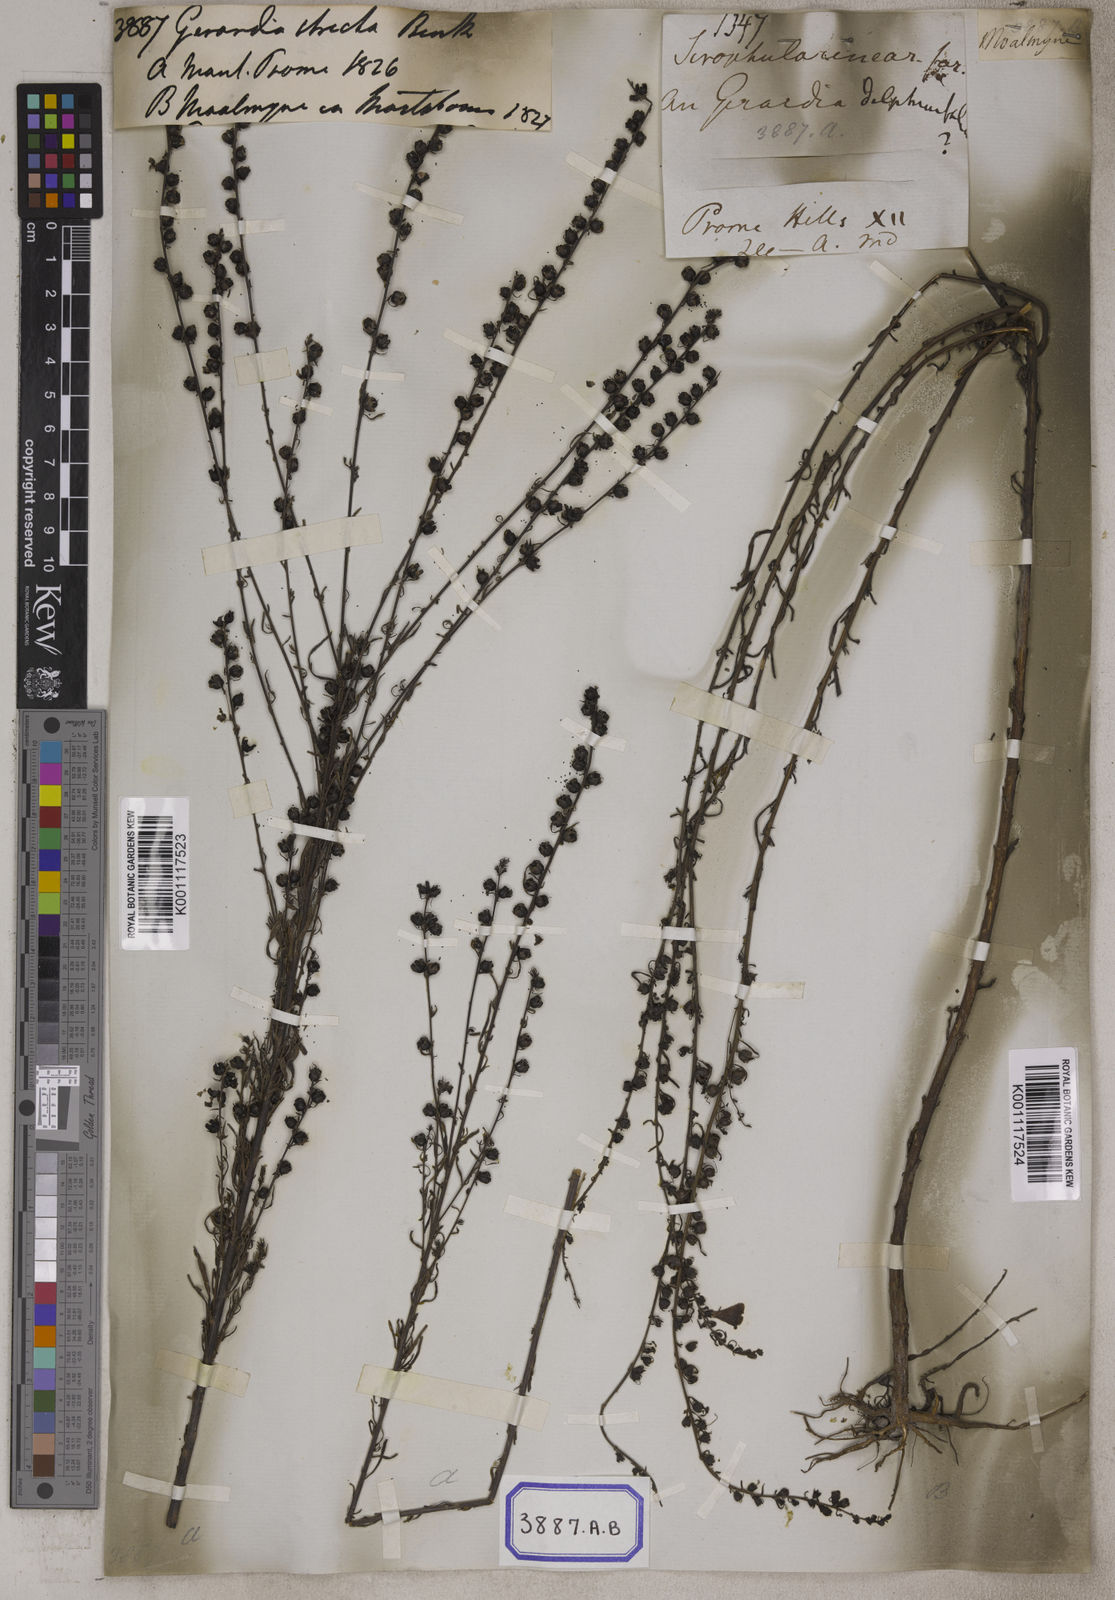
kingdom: Plantae
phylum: Tracheophyta
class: Magnoliopsida
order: Lamiales
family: Orobanchaceae
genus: Sopubia
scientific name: Sopubia stricta
